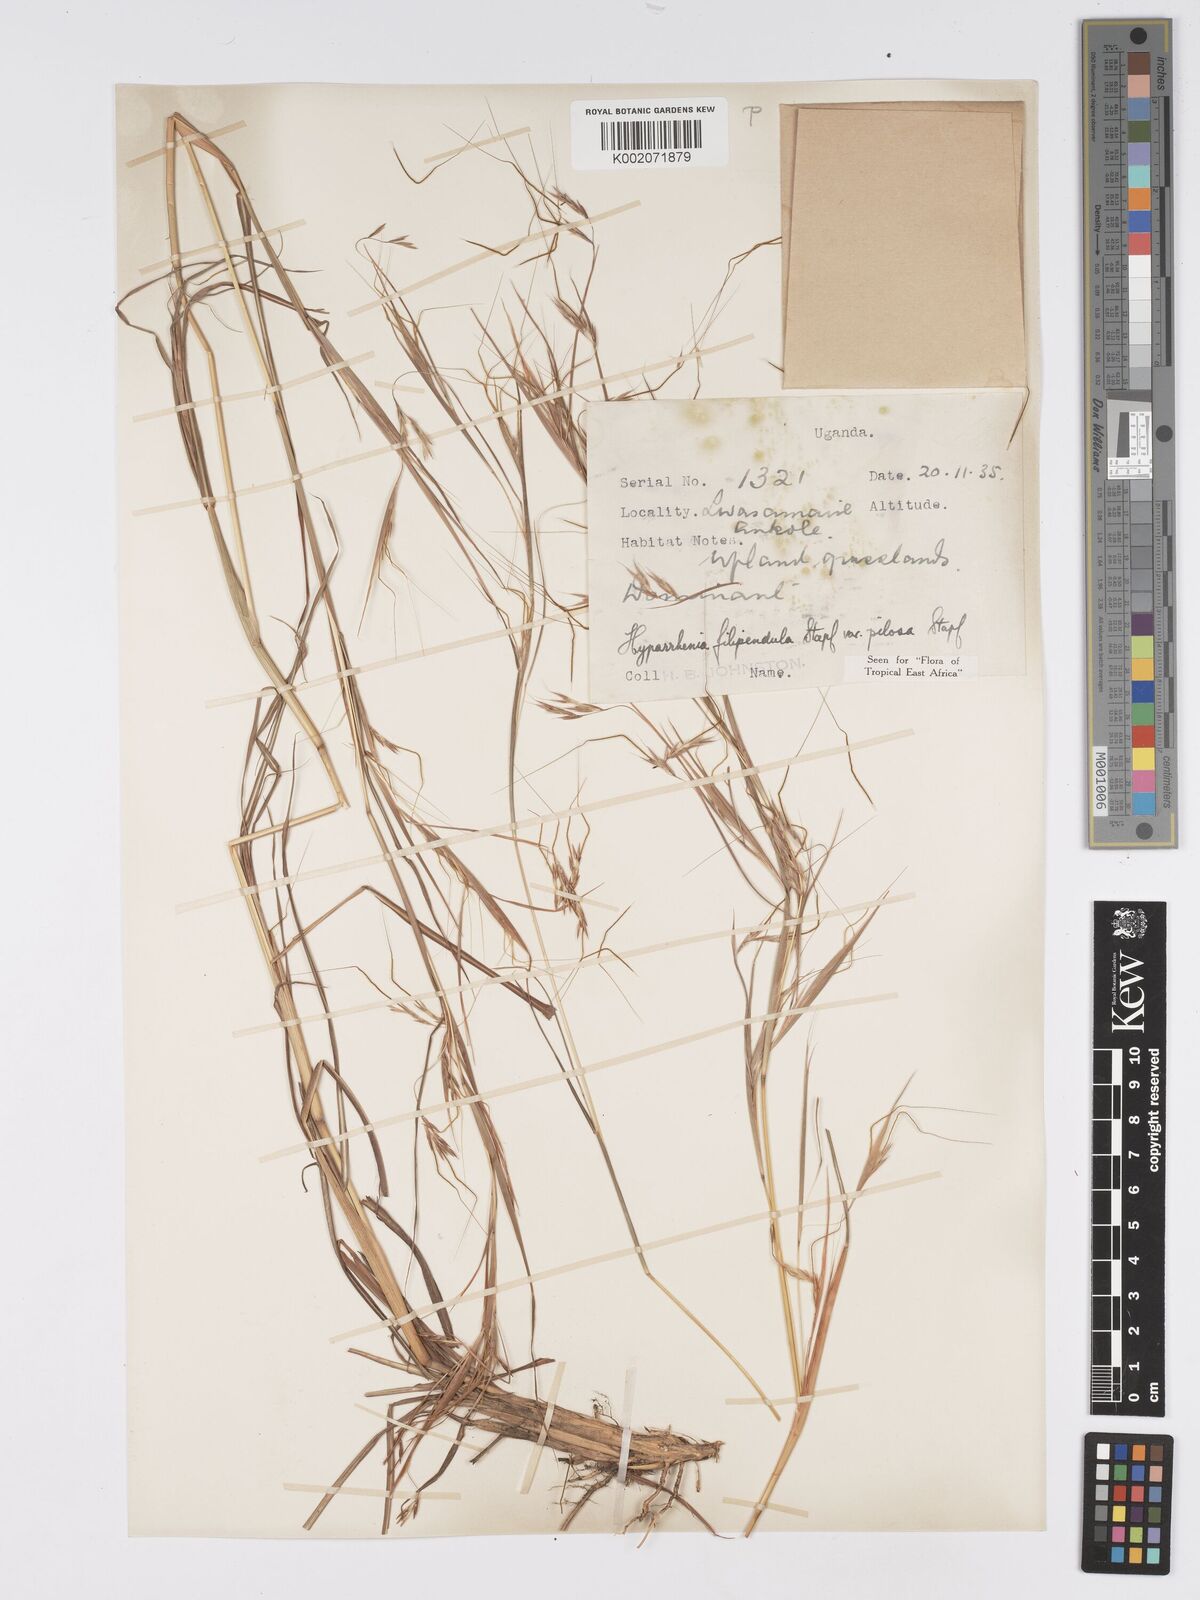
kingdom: Plantae
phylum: Tracheophyta
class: Liliopsida
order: Poales
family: Poaceae
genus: Hyparrhenia
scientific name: Hyparrhenia filipendula
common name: Tambookie grass
